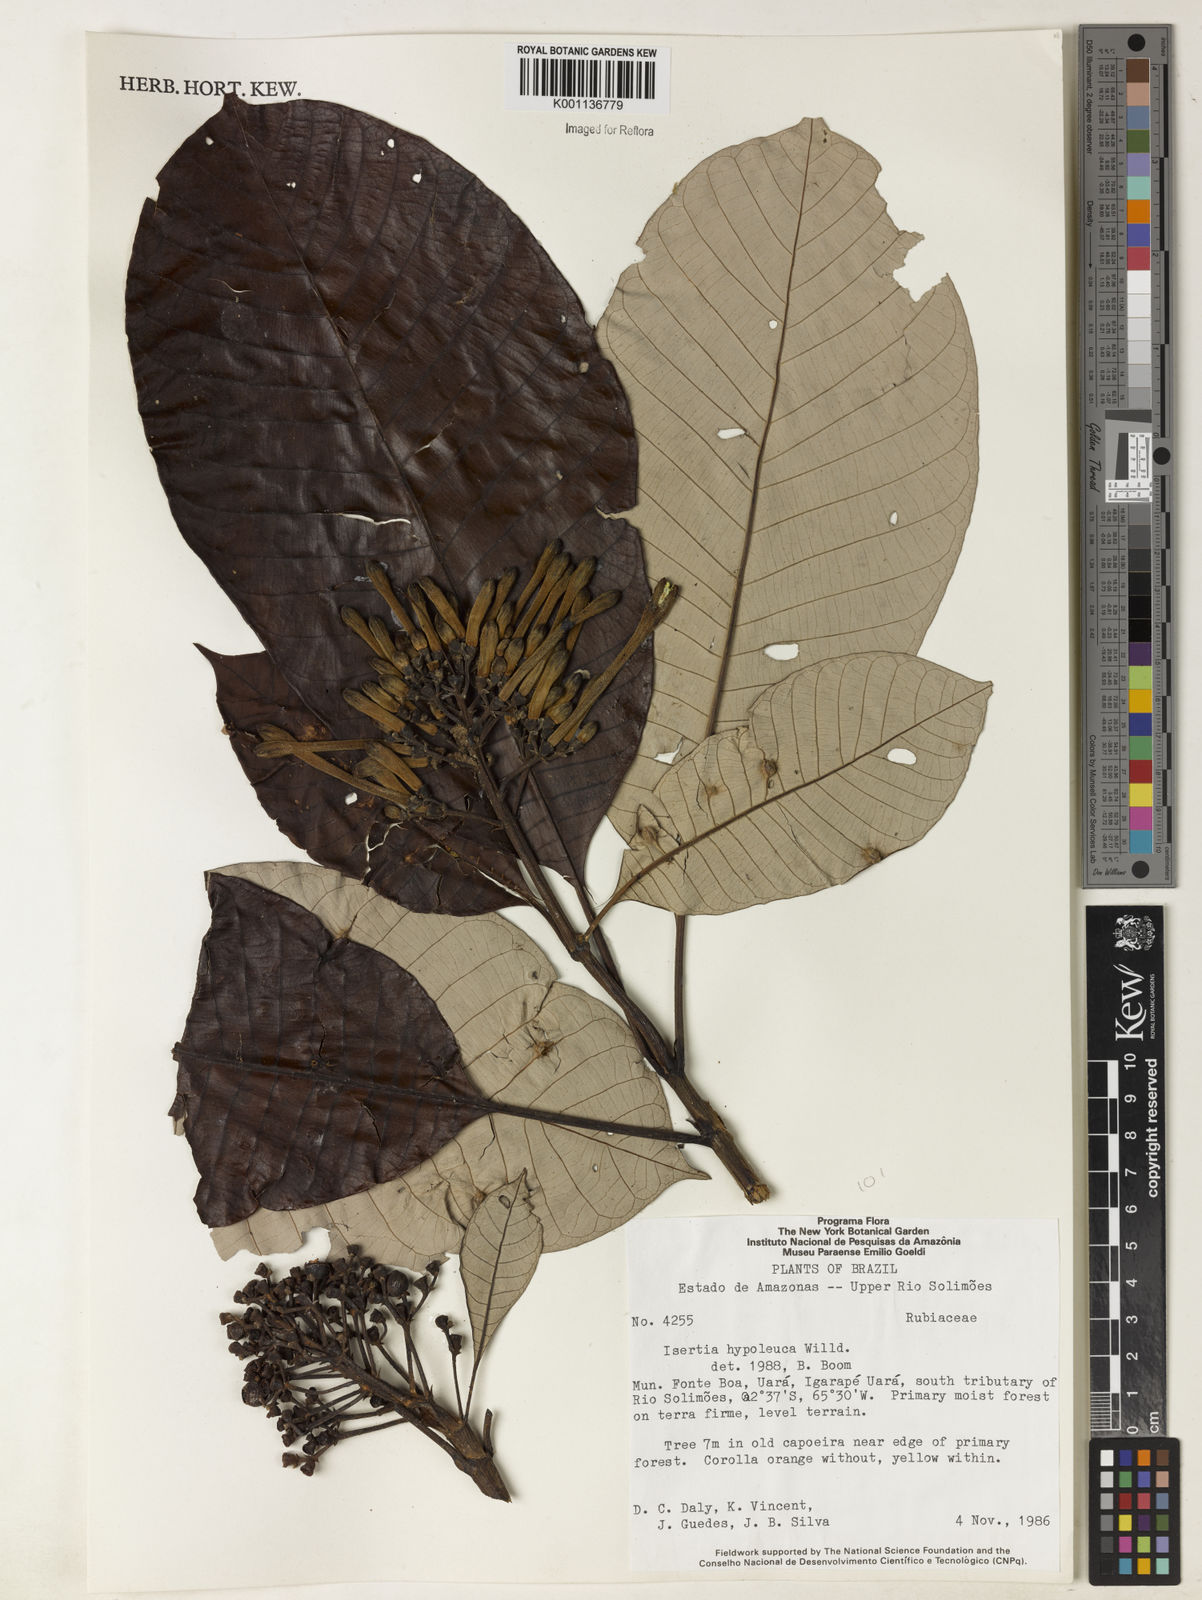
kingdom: Plantae
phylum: Tracheophyta
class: Magnoliopsida
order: Gentianales
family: Rubiaceae
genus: Isertia
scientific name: Isertia hypoleuca
